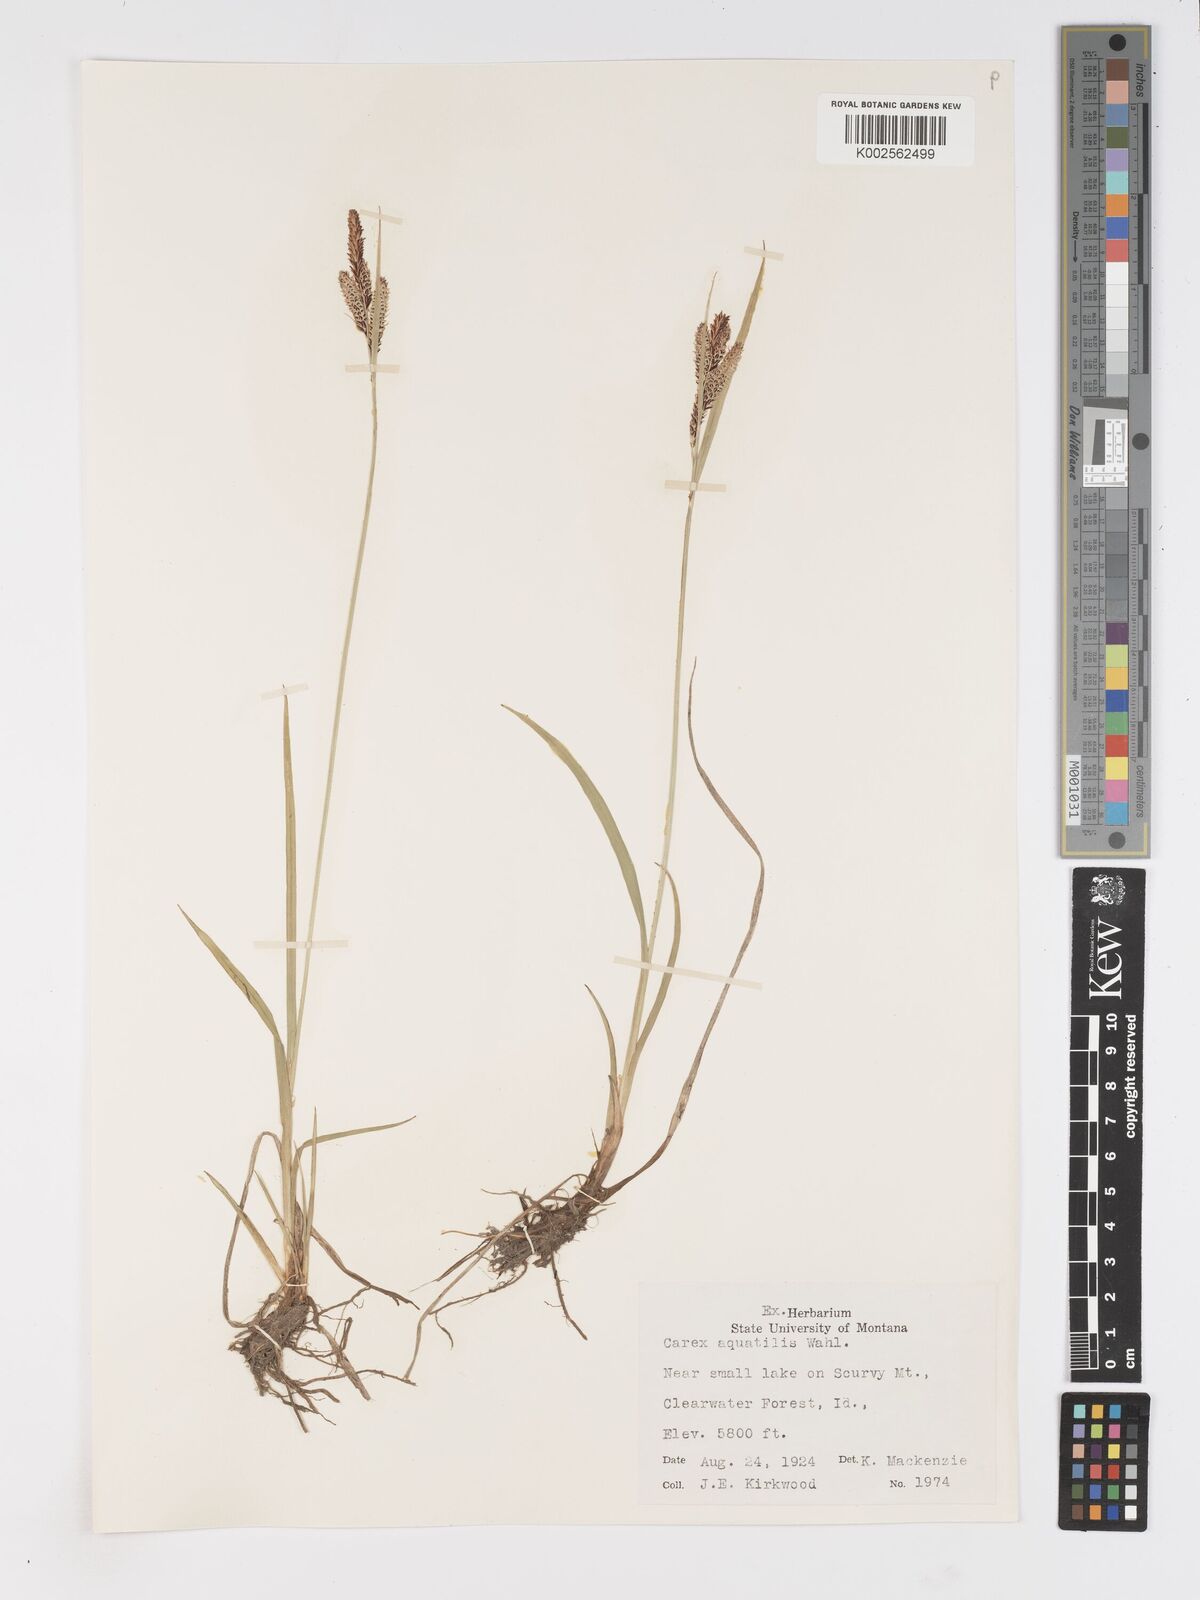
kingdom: Plantae
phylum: Tracheophyta
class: Liliopsida
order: Poales
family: Cyperaceae
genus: Carex
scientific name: Carex
